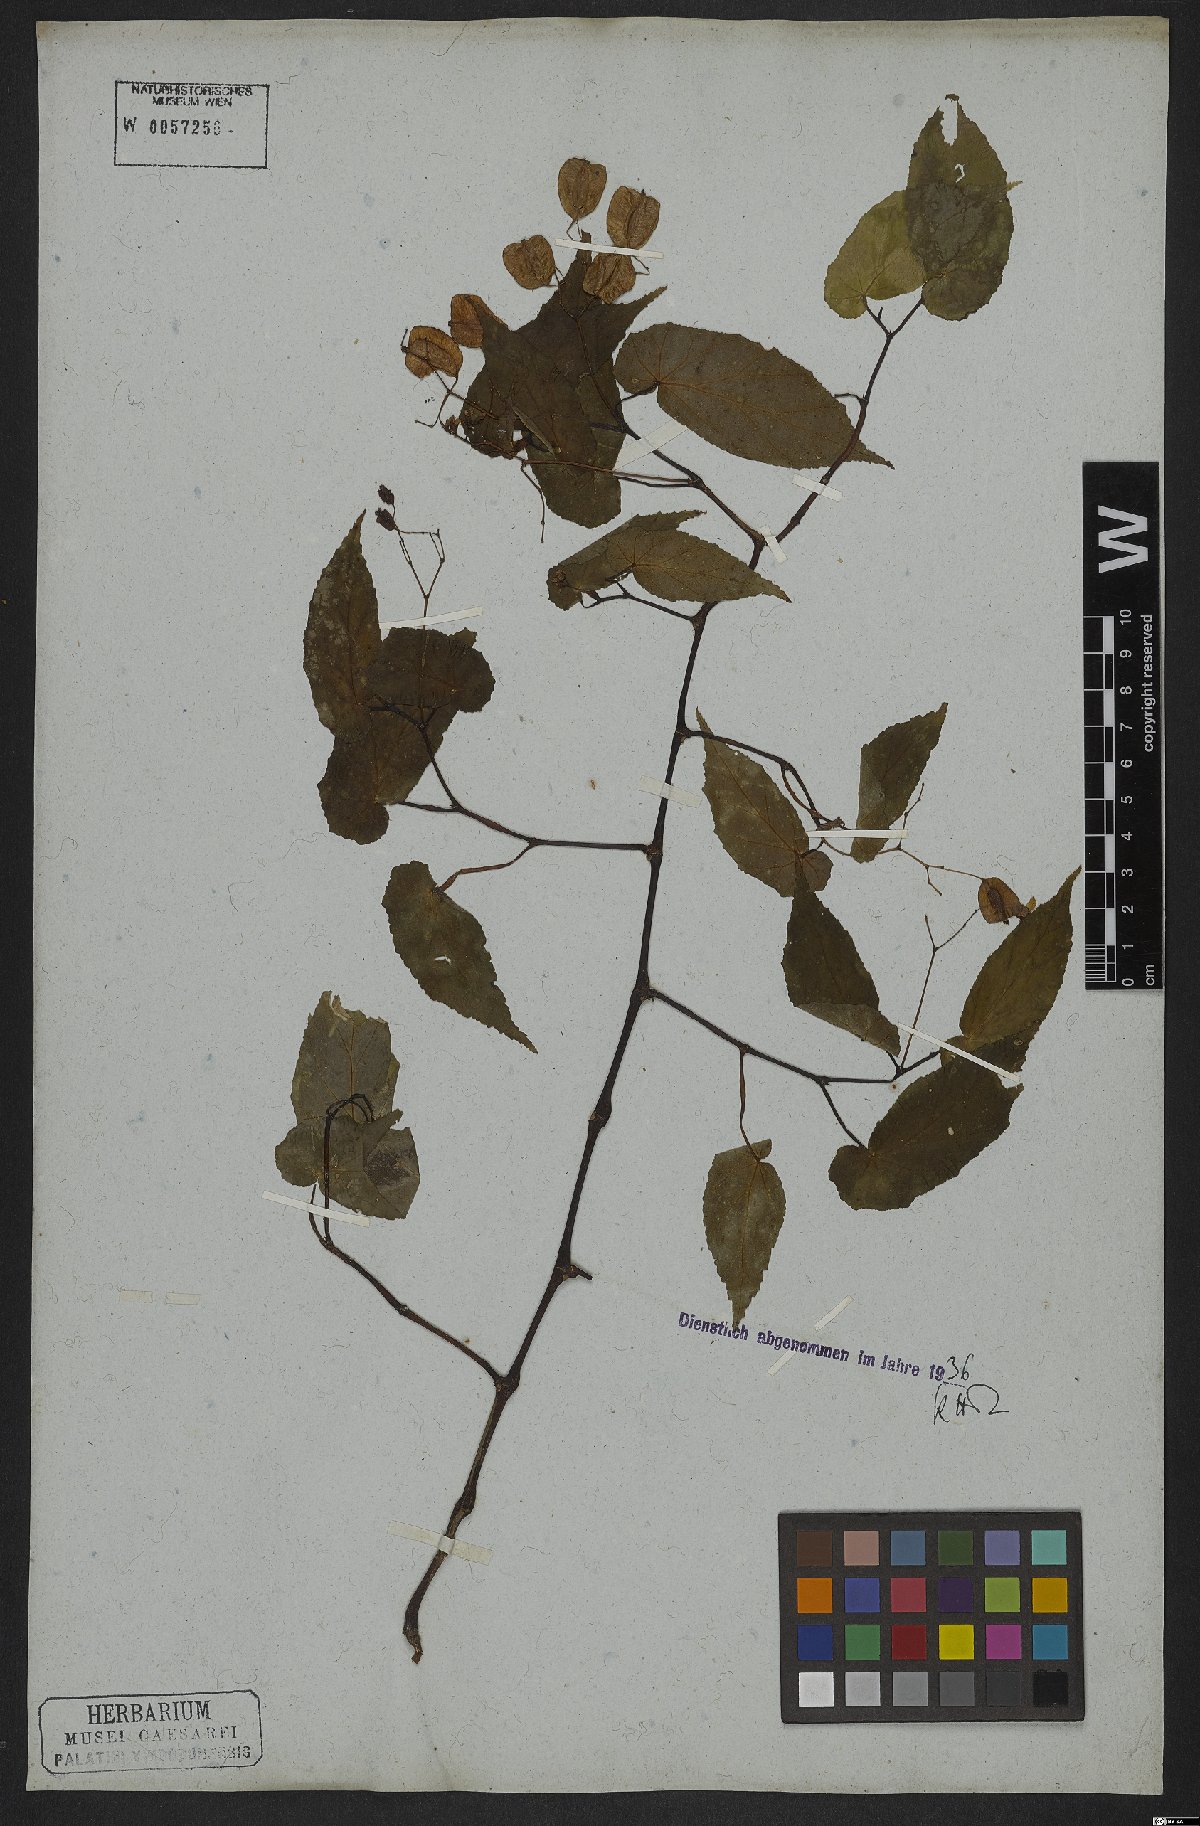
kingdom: Plantae
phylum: Tracheophyta
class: Magnoliopsida
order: Cucurbitales
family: Begoniaceae
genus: Begonia
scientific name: Begonia fischeri
